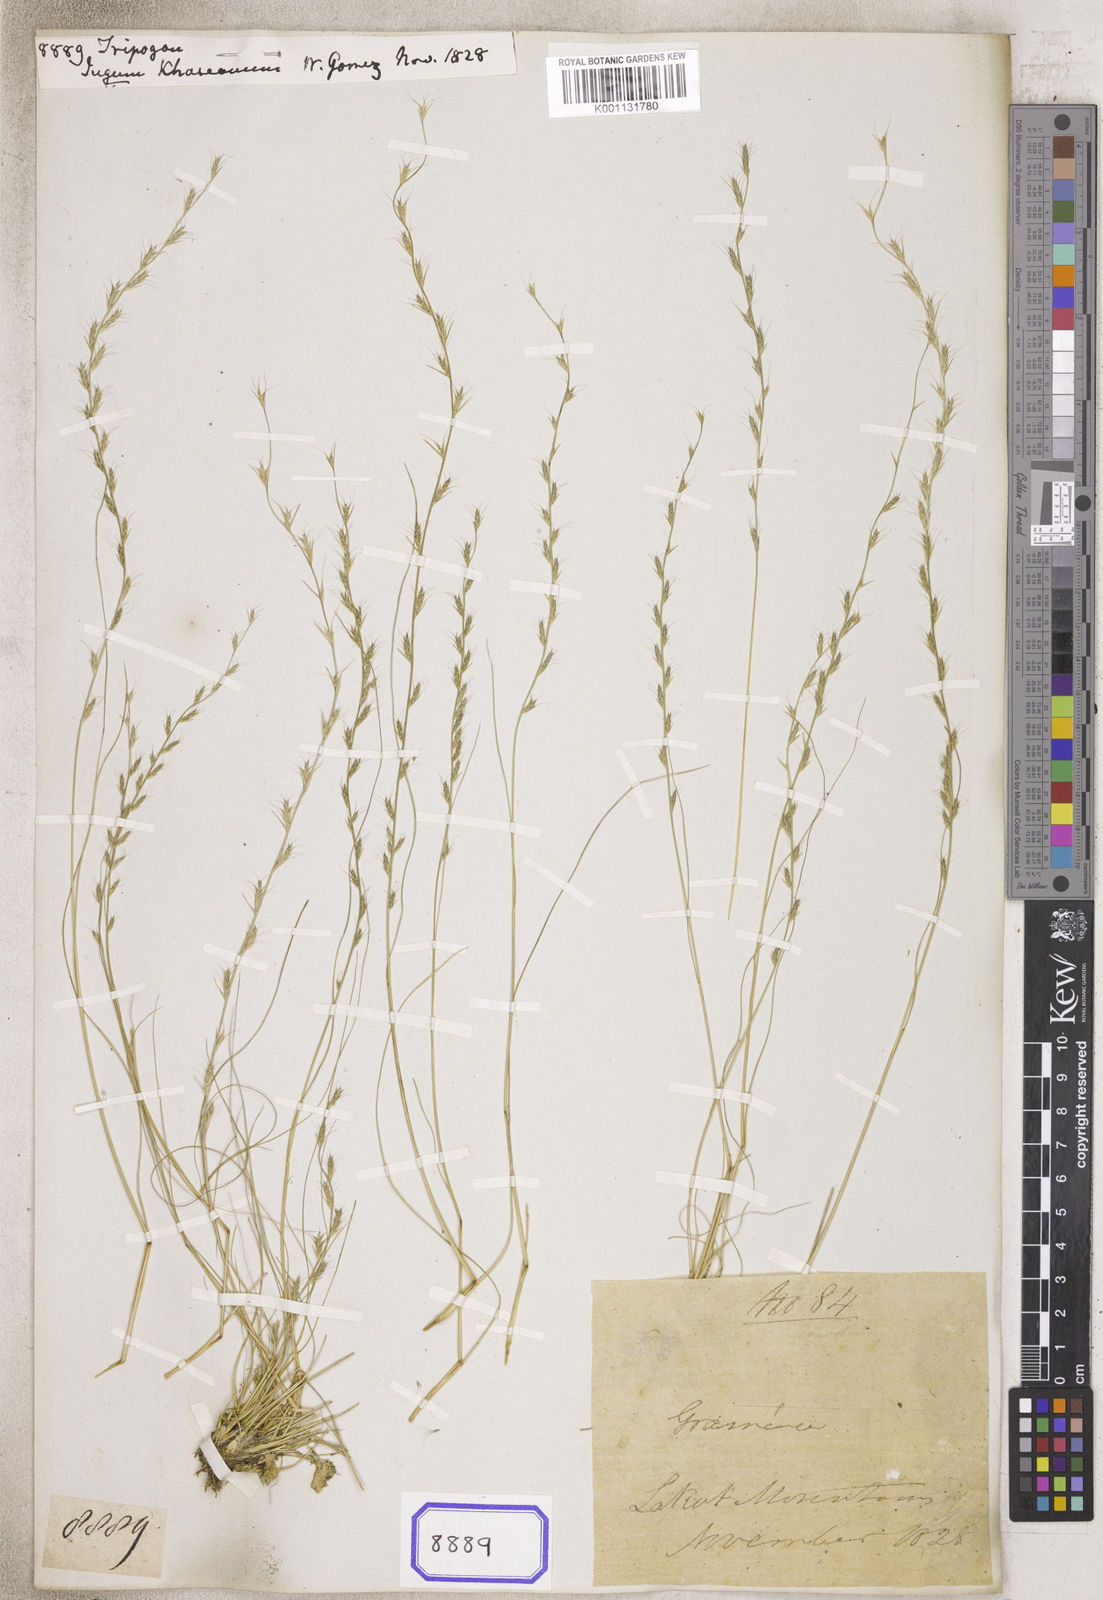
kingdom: Plantae
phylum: Tracheophyta
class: Liliopsida
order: Poales
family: Poaceae
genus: Tripogon
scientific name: Tripogon
